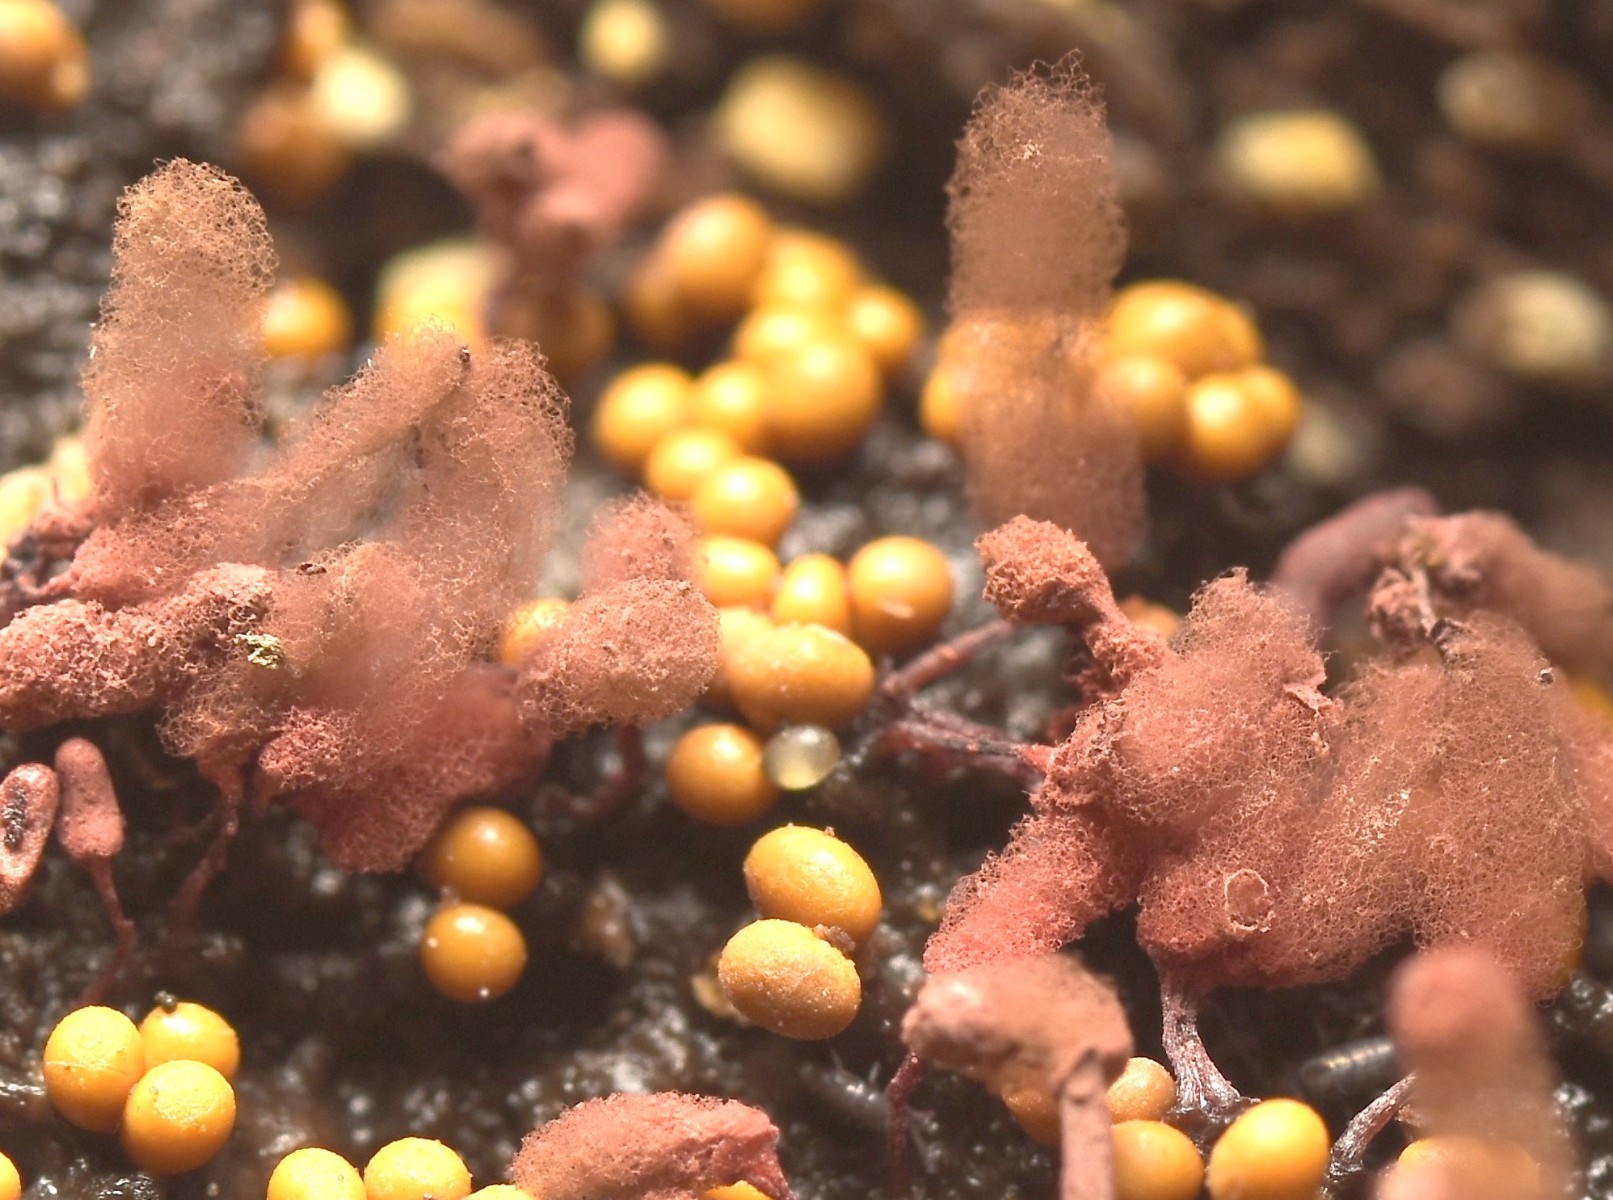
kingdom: Protozoa
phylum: Mycetozoa
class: Myxomycetes
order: Trichiales
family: Arcyriaceae
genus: Arcyria
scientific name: Arcyria denudata
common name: karminrød skålsvøb
